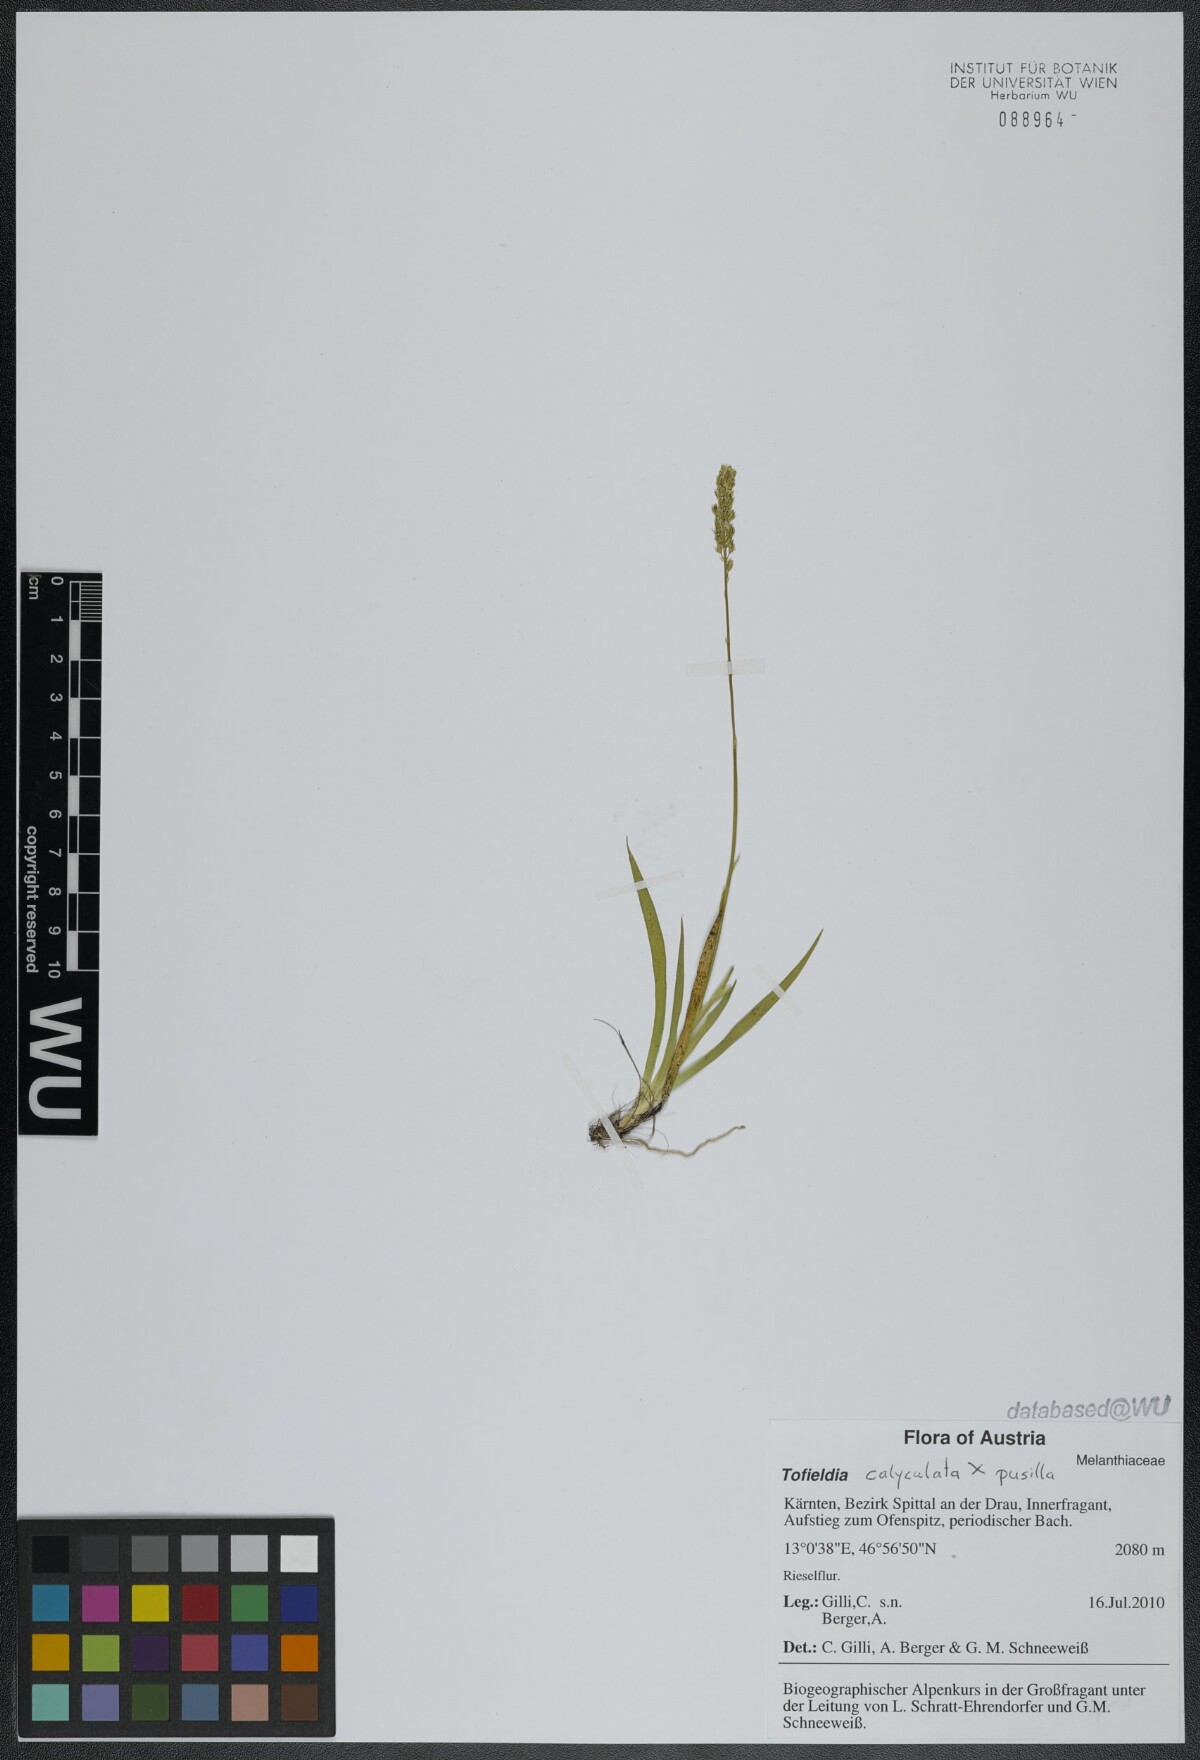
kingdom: Plantae
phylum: Tracheophyta
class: Liliopsida
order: Liliales
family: Melanthiaceae
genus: Tofieldia
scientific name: Tofieldia
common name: Tofieldia
